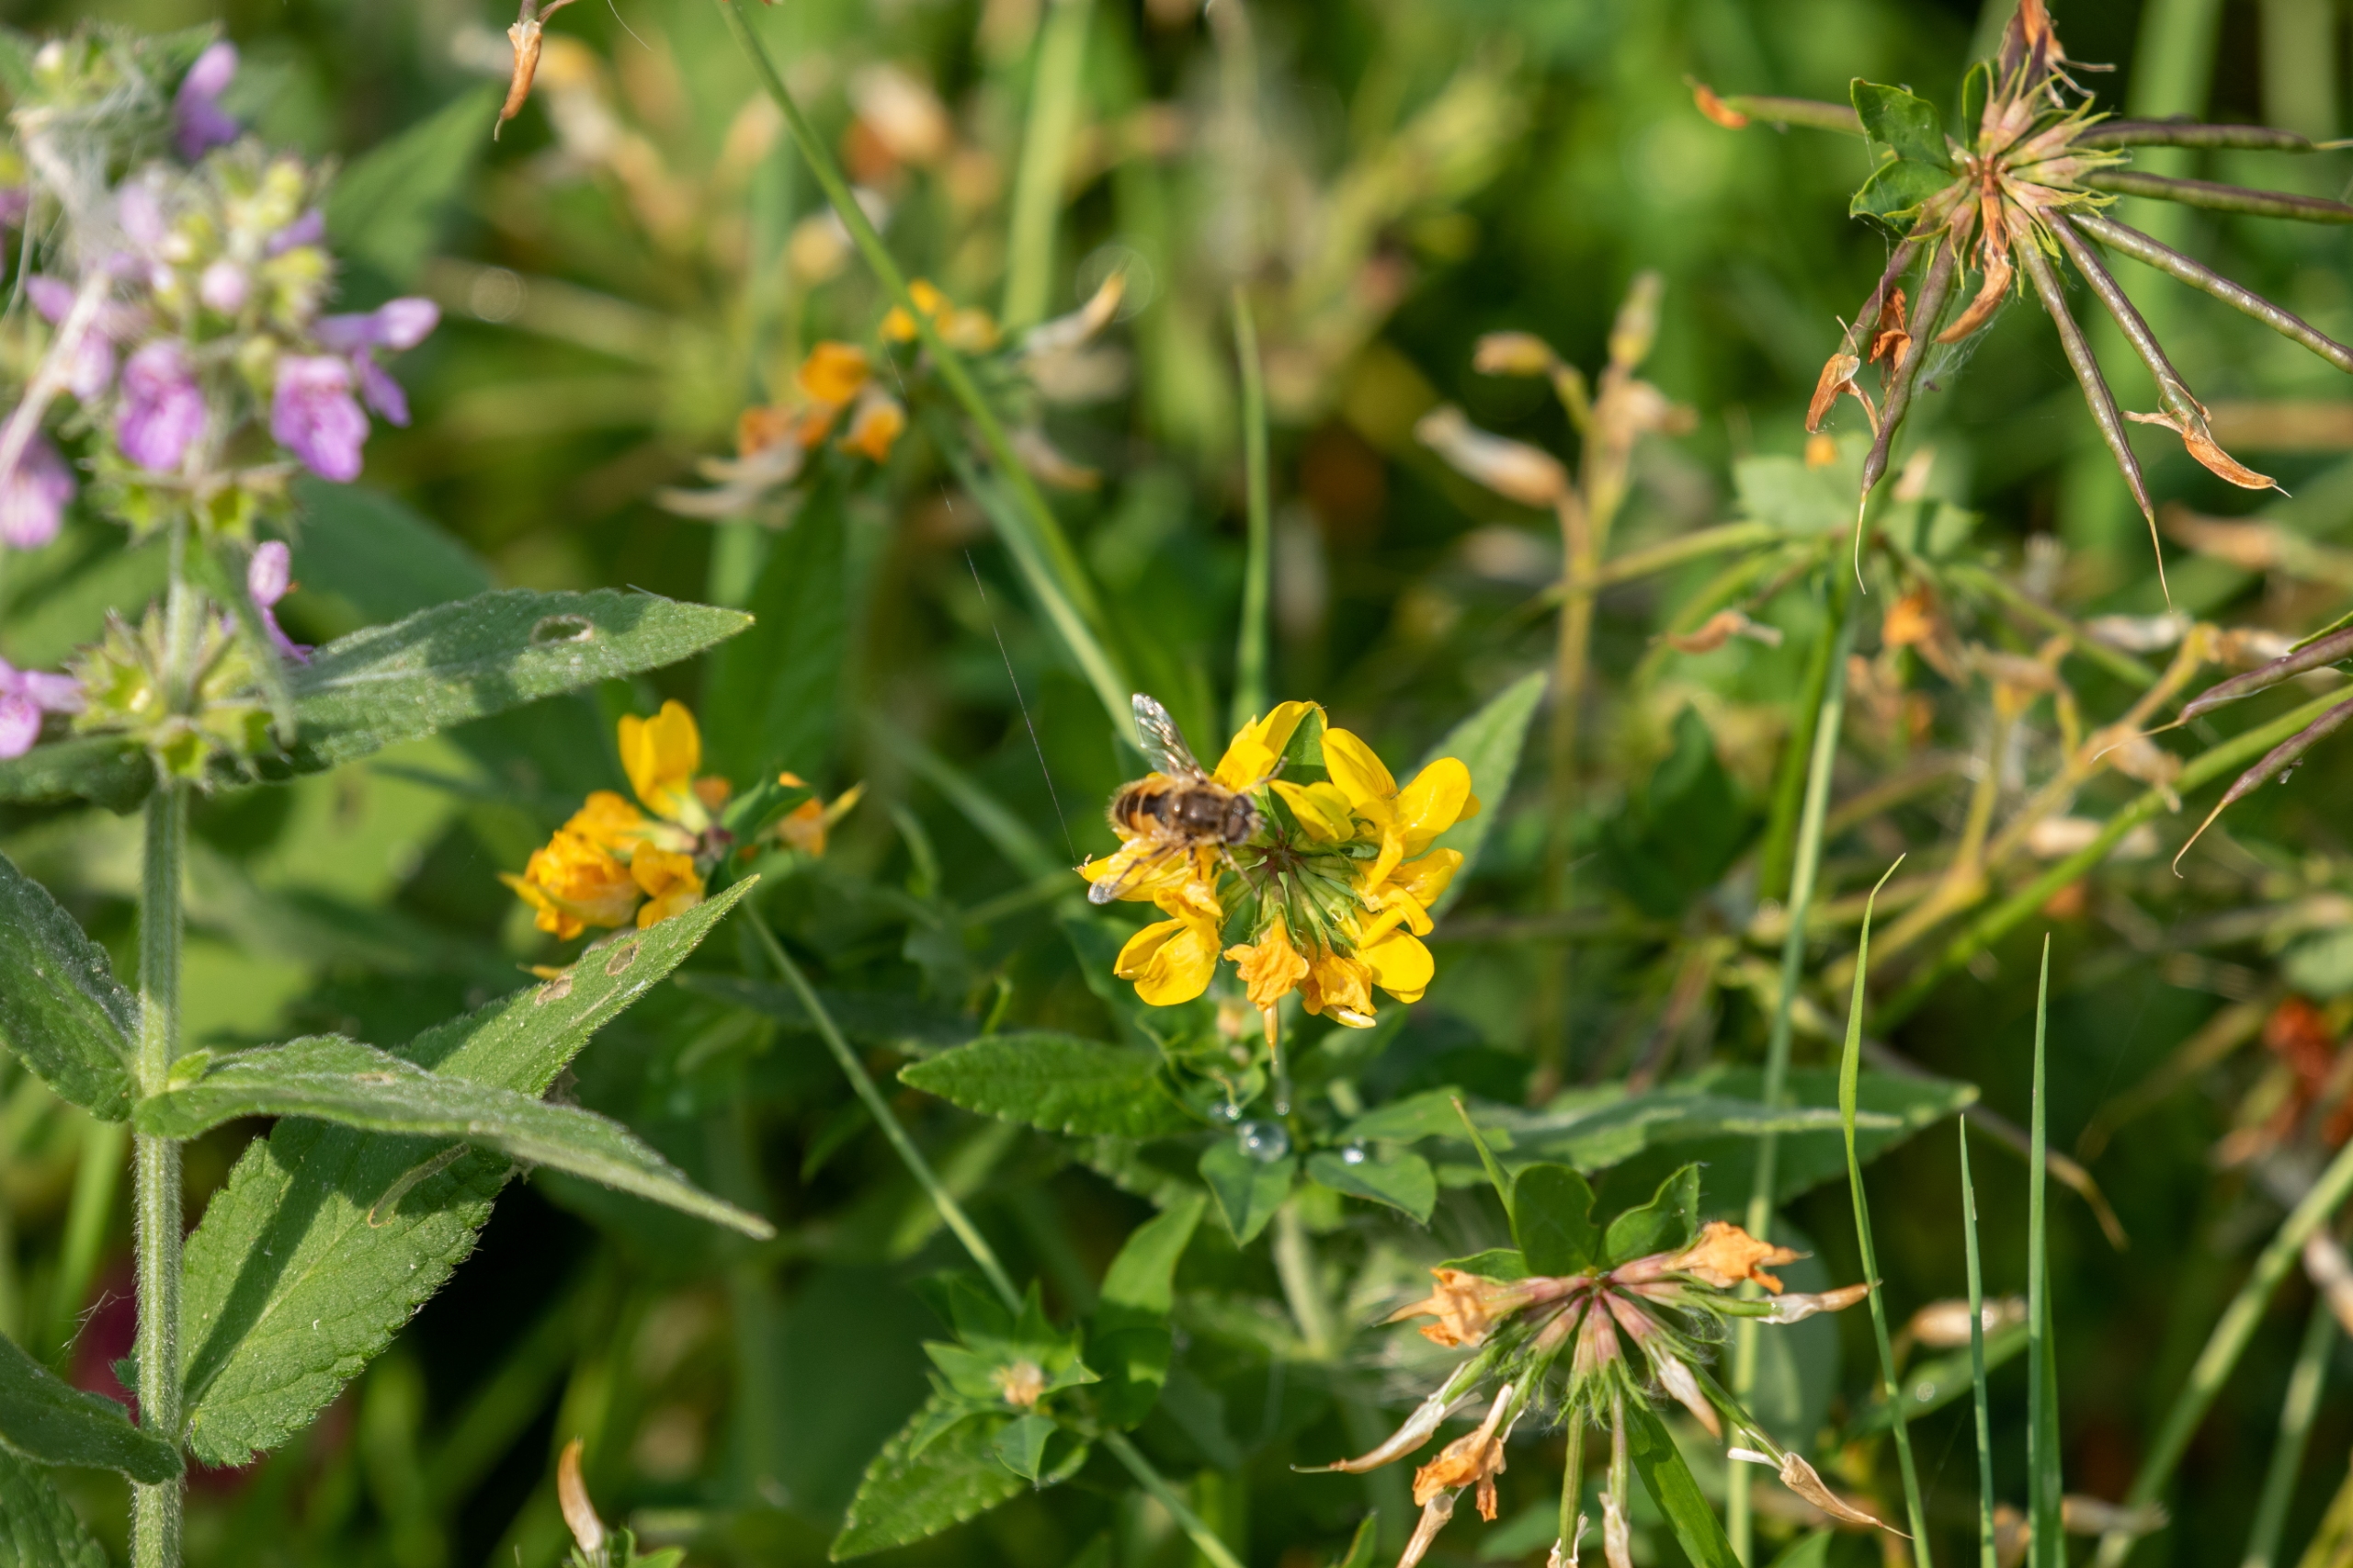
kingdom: Plantae
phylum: Tracheophyta
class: Magnoliopsida
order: Fabales
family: Fabaceae
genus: Lotus
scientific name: Lotus pedunculatus
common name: Sump-kællingetand
